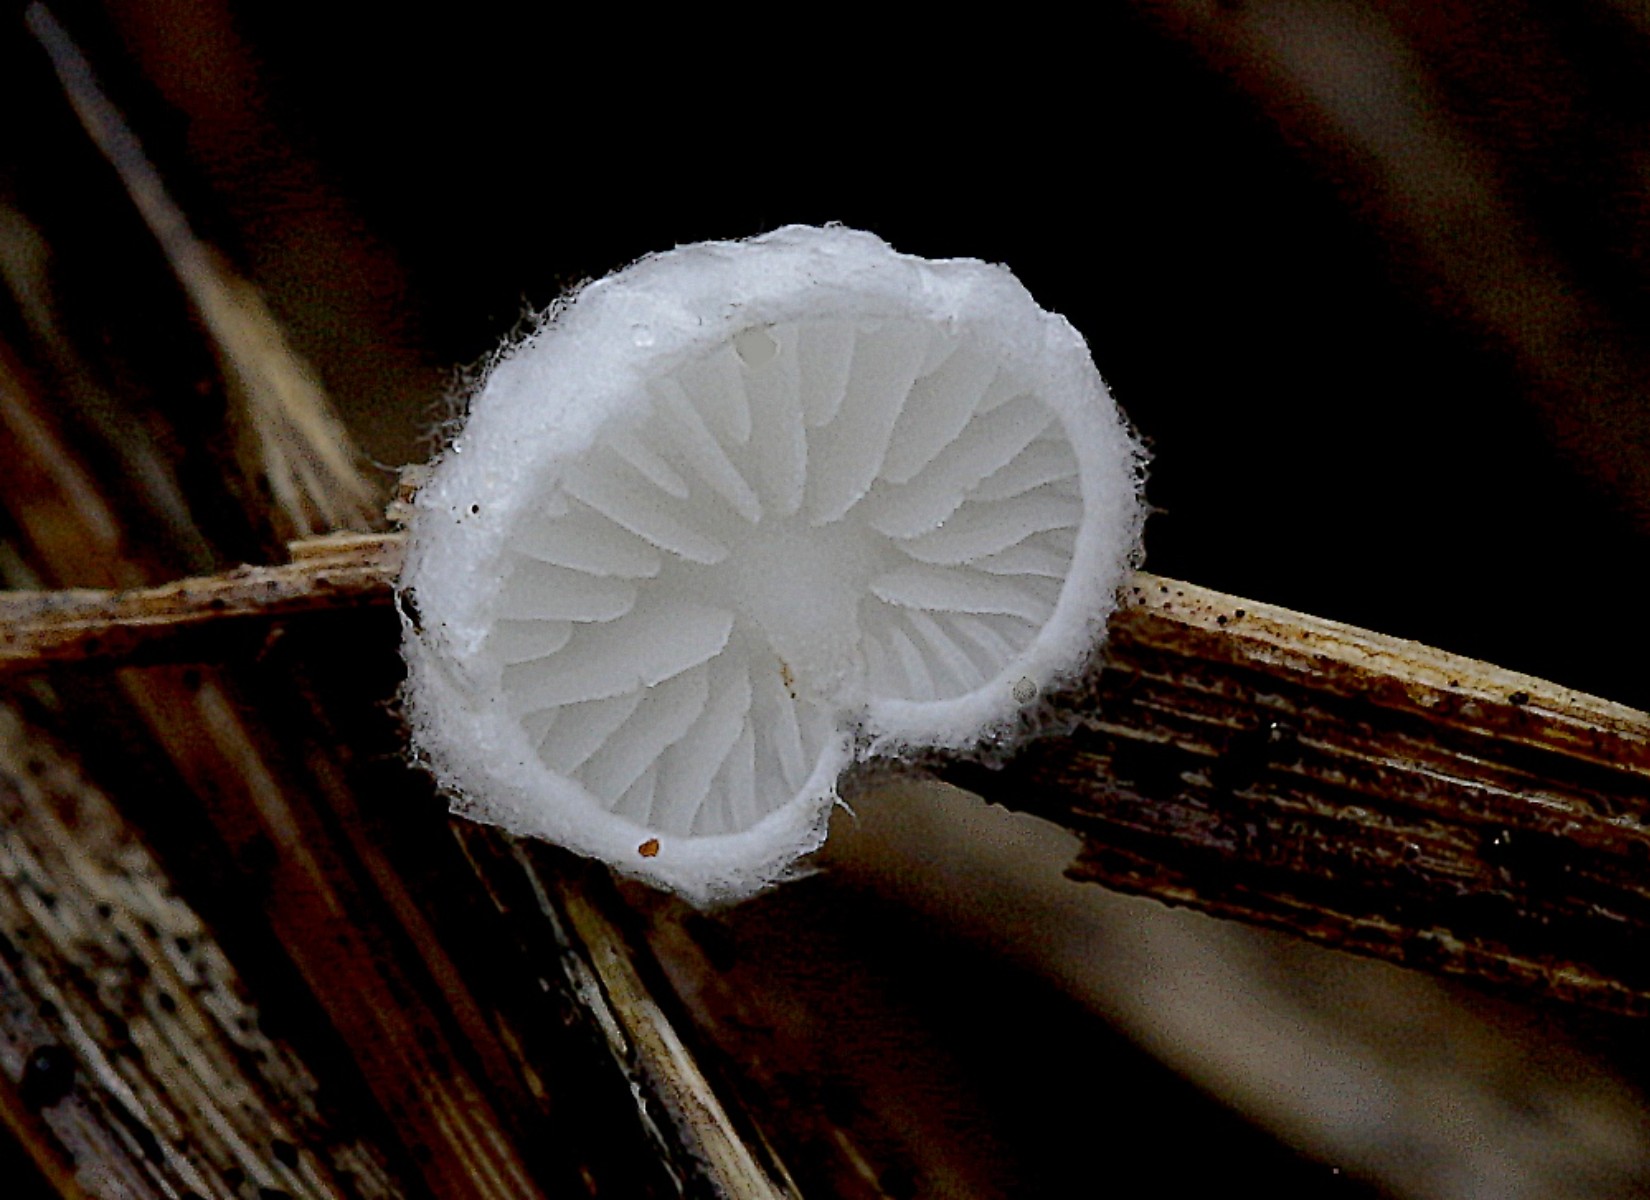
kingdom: Fungi
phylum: Basidiomycota
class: Agaricomycetes
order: Agaricales
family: Entolomataceae
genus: Clitopilus
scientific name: Clitopilus hobsonii
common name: Miller's oysterling
